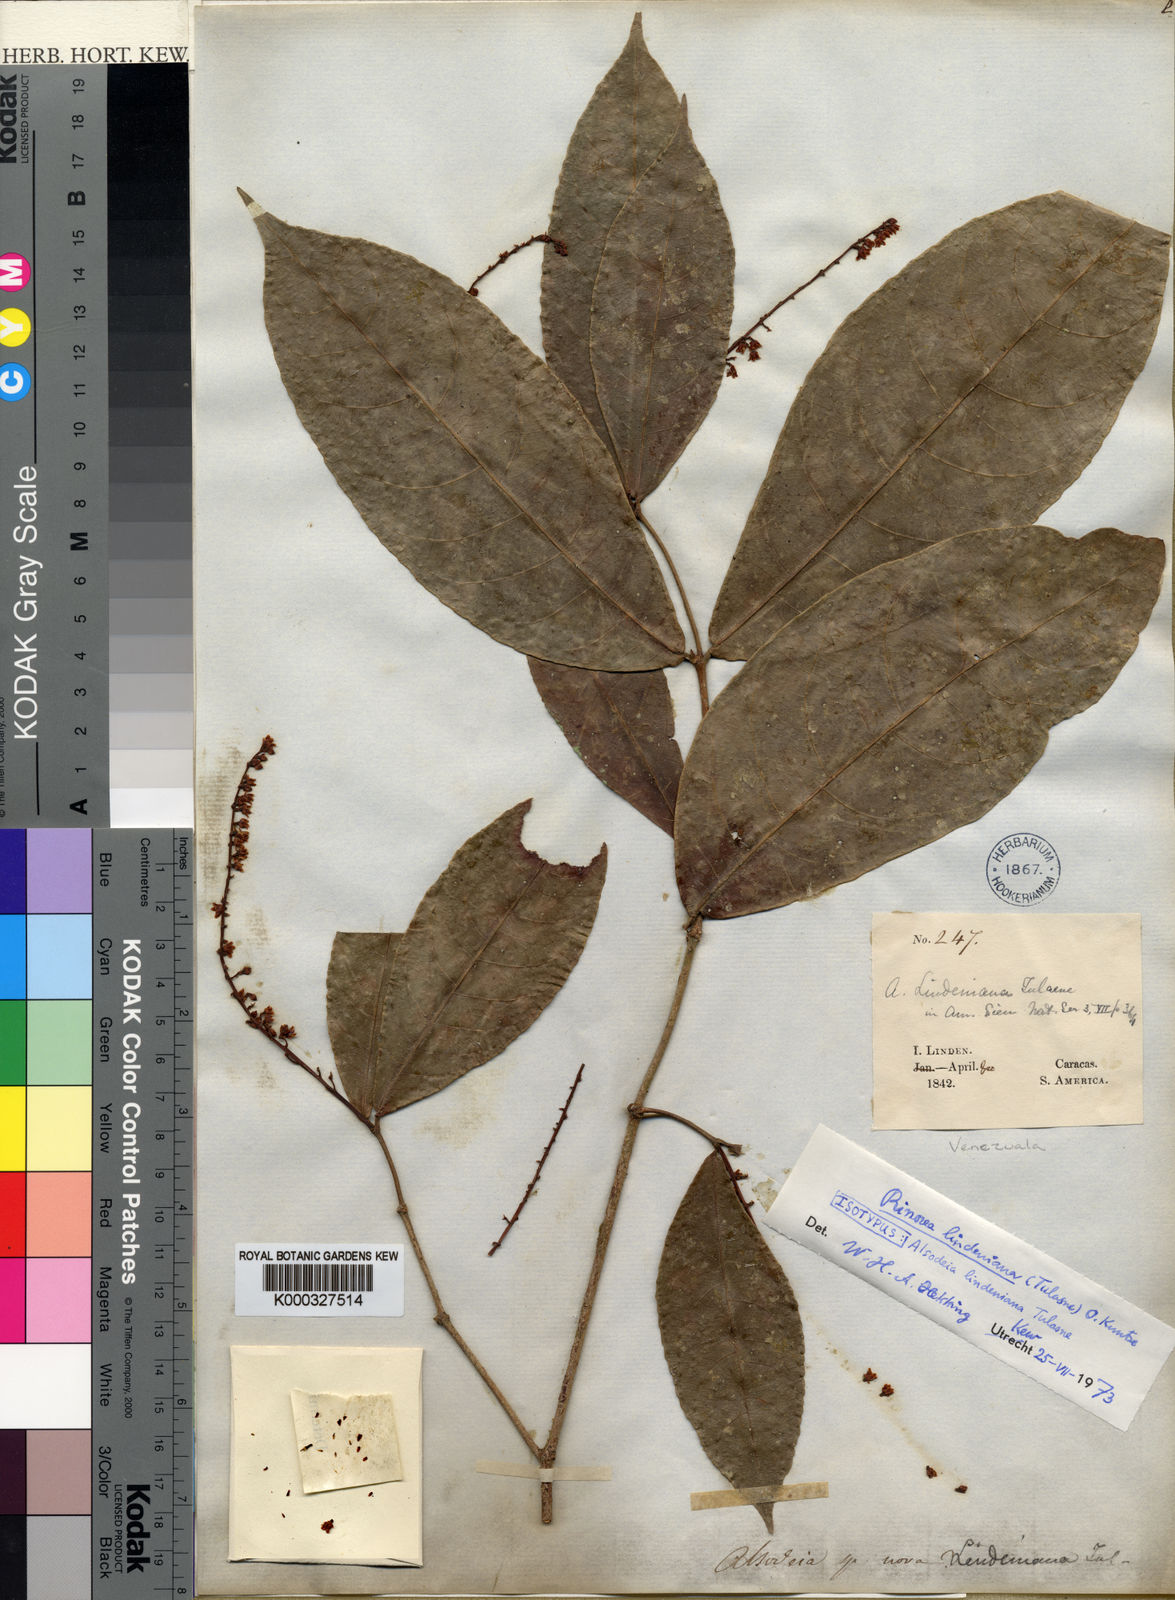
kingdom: Plantae
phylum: Tracheophyta
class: Magnoliopsida
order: Malpighiales
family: Violaceae
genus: Rinorea
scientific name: Rinorea lindeniana
